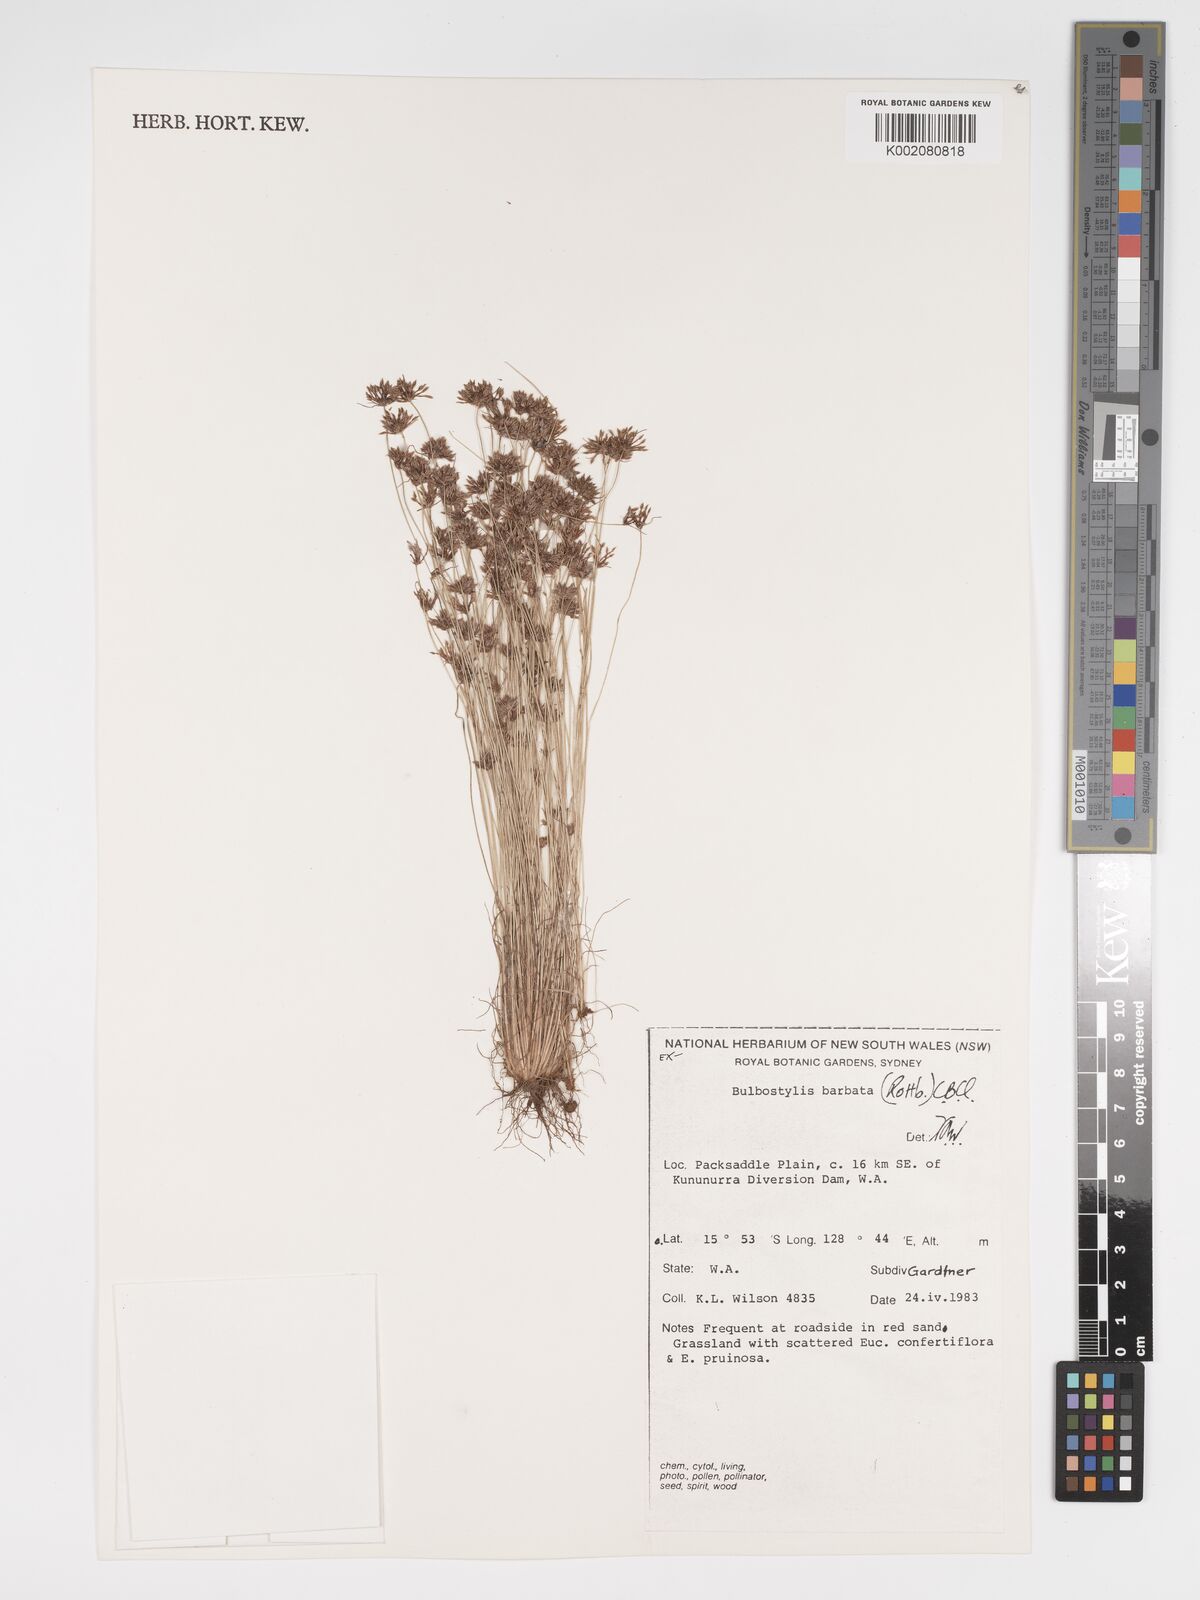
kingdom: Plantae
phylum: Tracheophyta
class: Liliopsida
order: Poales
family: Cyperaceae
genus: Bulbostylis
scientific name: Bulbostylis barbata
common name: Watergrass
